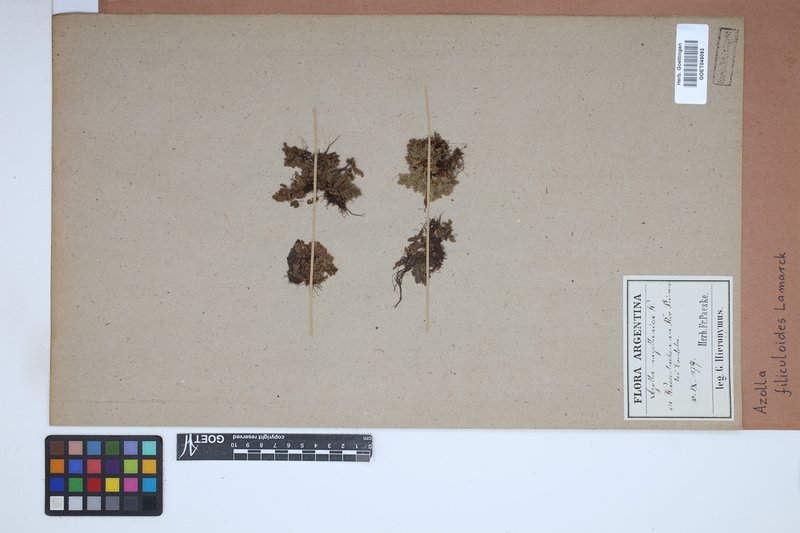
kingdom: Plantae
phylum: Tracheophyta
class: Polypodiopsida
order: Salviniales
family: Salviniaceae
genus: Azolla
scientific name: Azolla filiculoides
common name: Water fern
